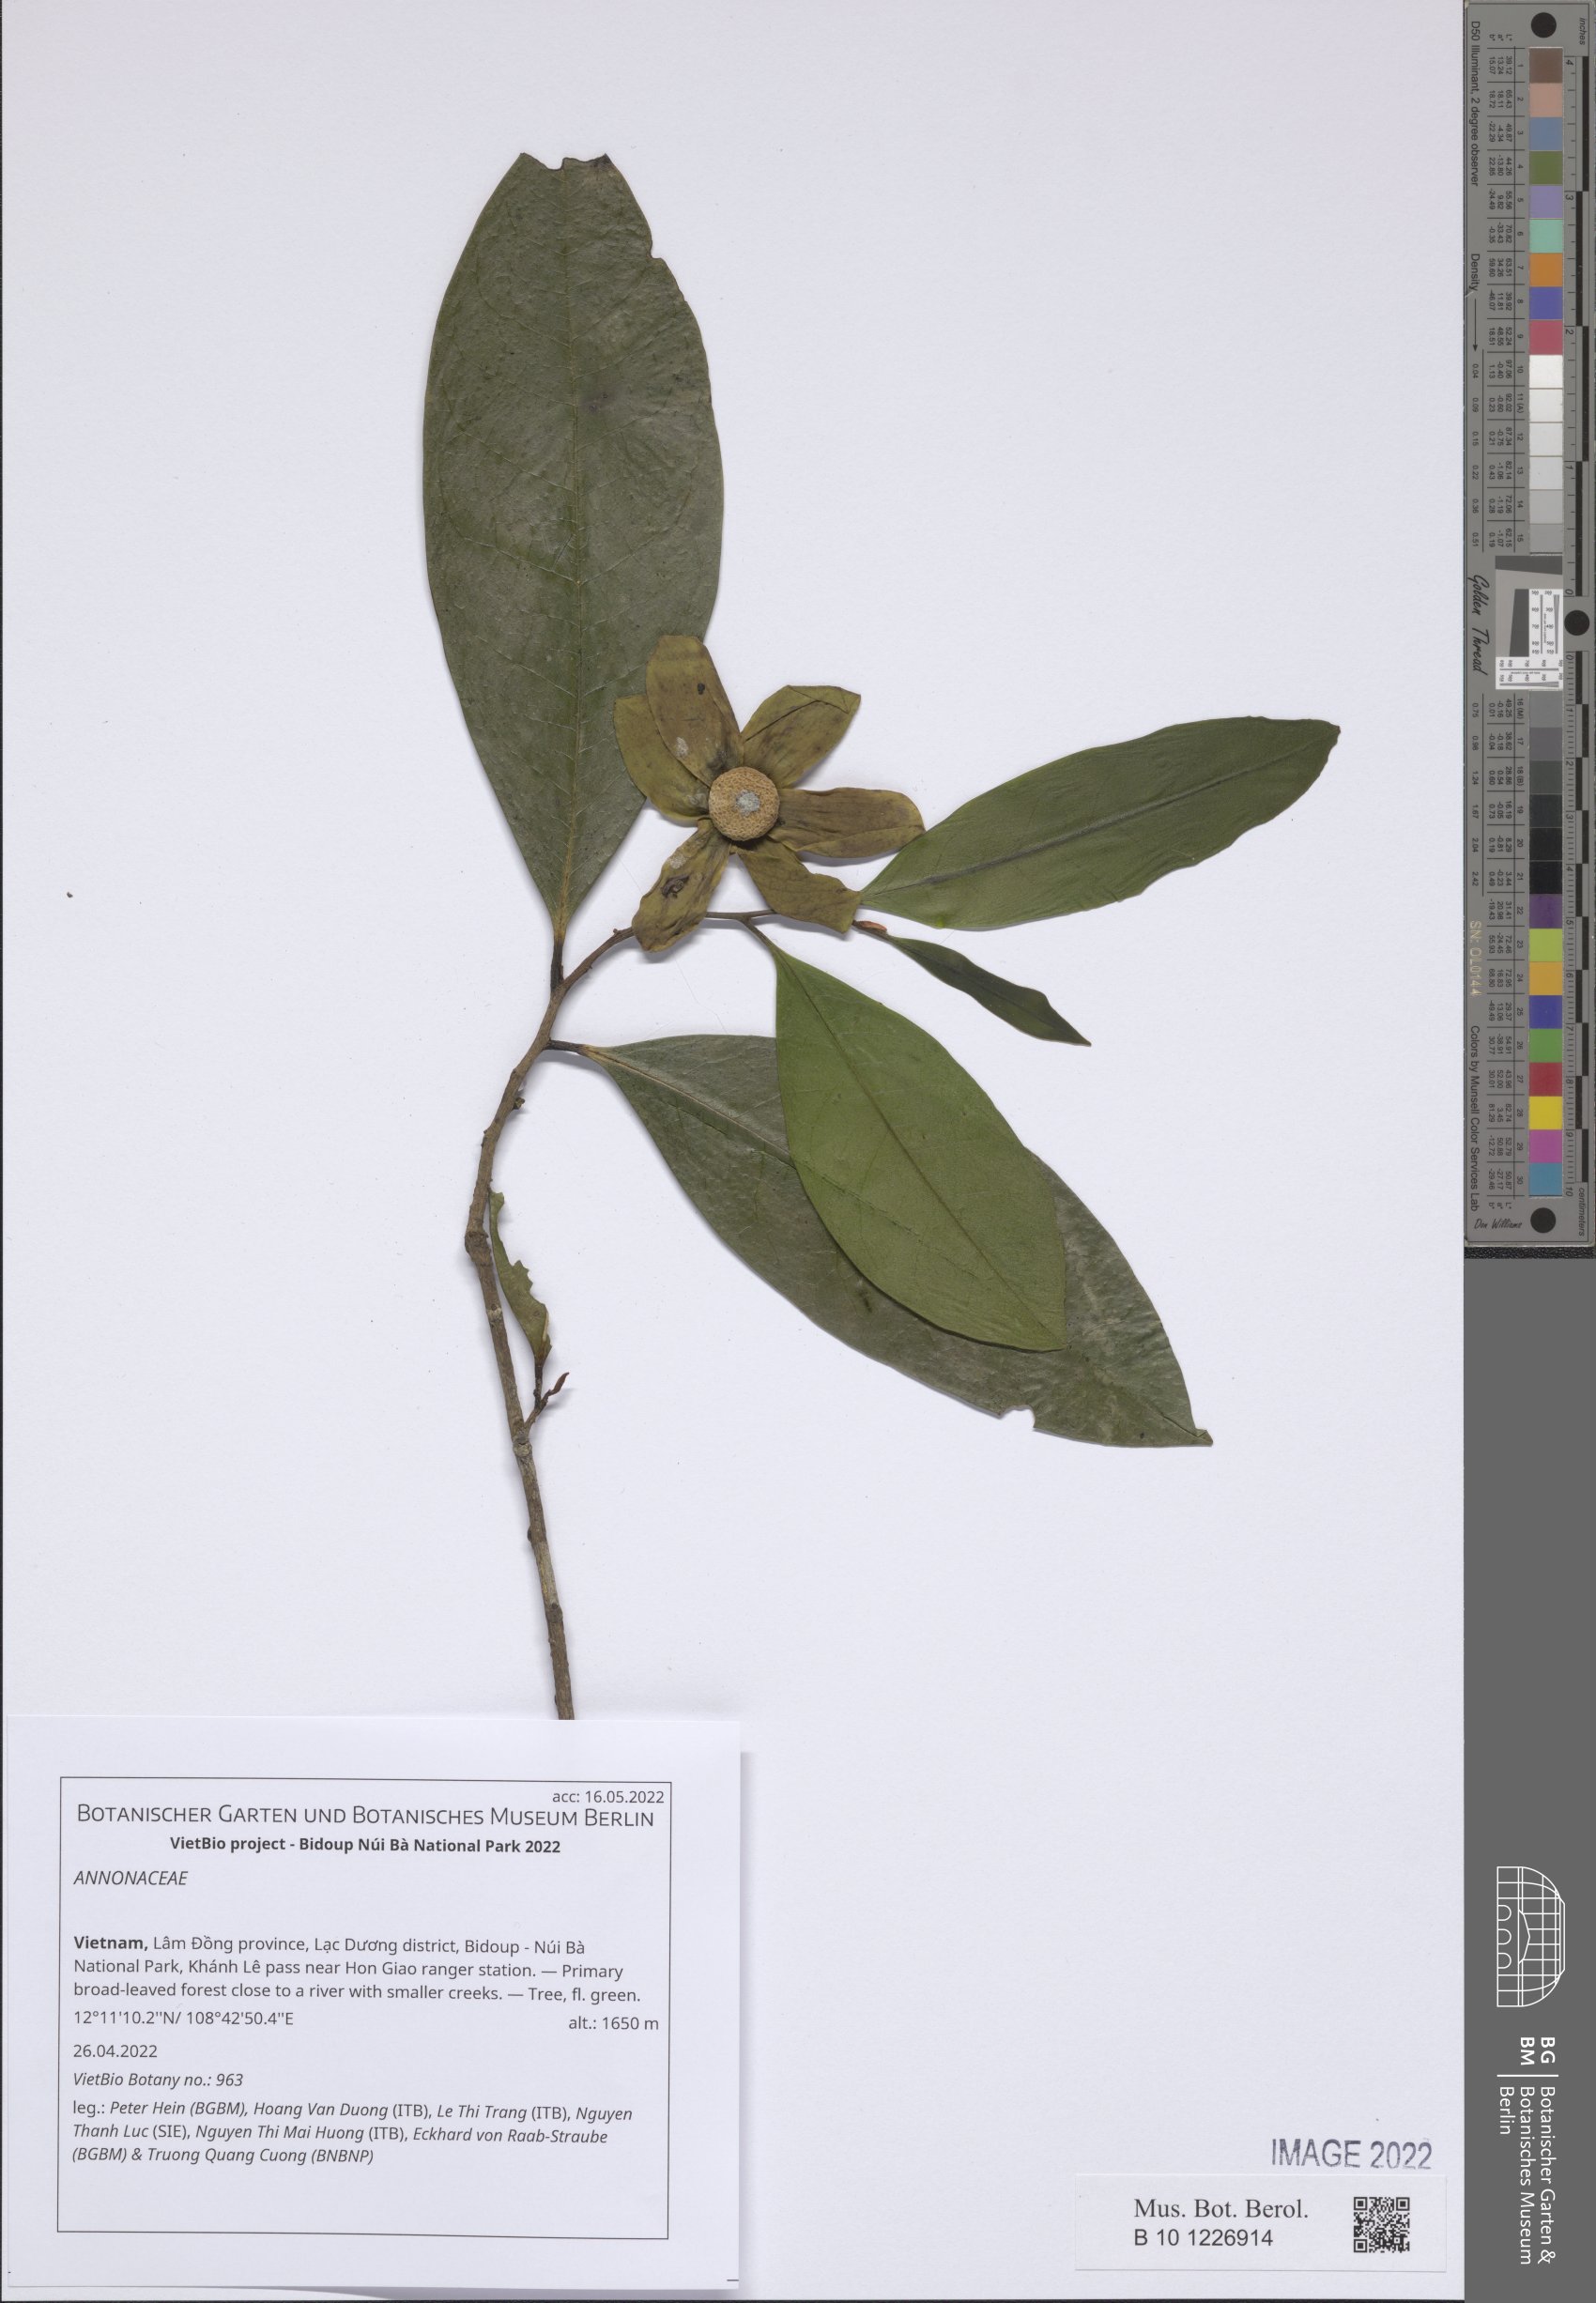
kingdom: Plantae
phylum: Tracheophyta
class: Magnoliopsida
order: Magnoliales
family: Annonaceae
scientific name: Annonaceae
